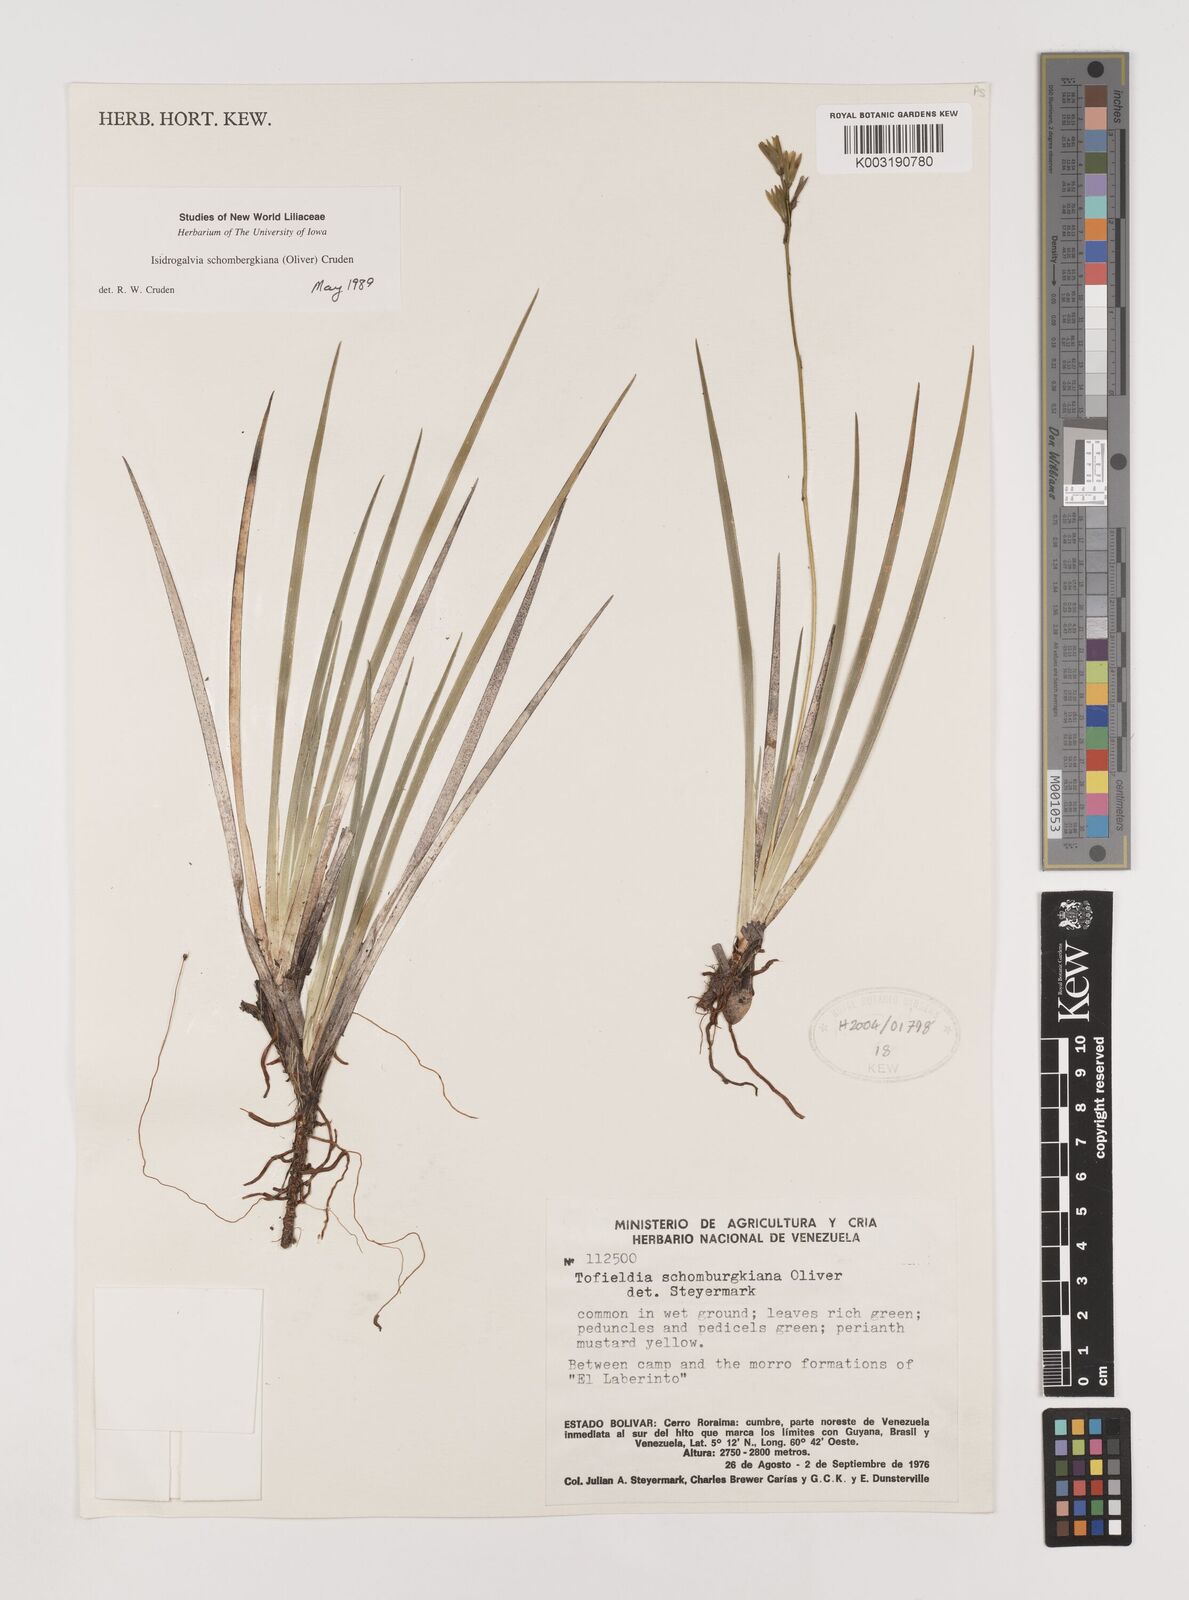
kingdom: Plantae
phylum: Tracheophyta
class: Liliopsida
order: Alismatales
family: Tofieldiaceae
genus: Harperocallis
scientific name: Harperocallis schomburgkiana
